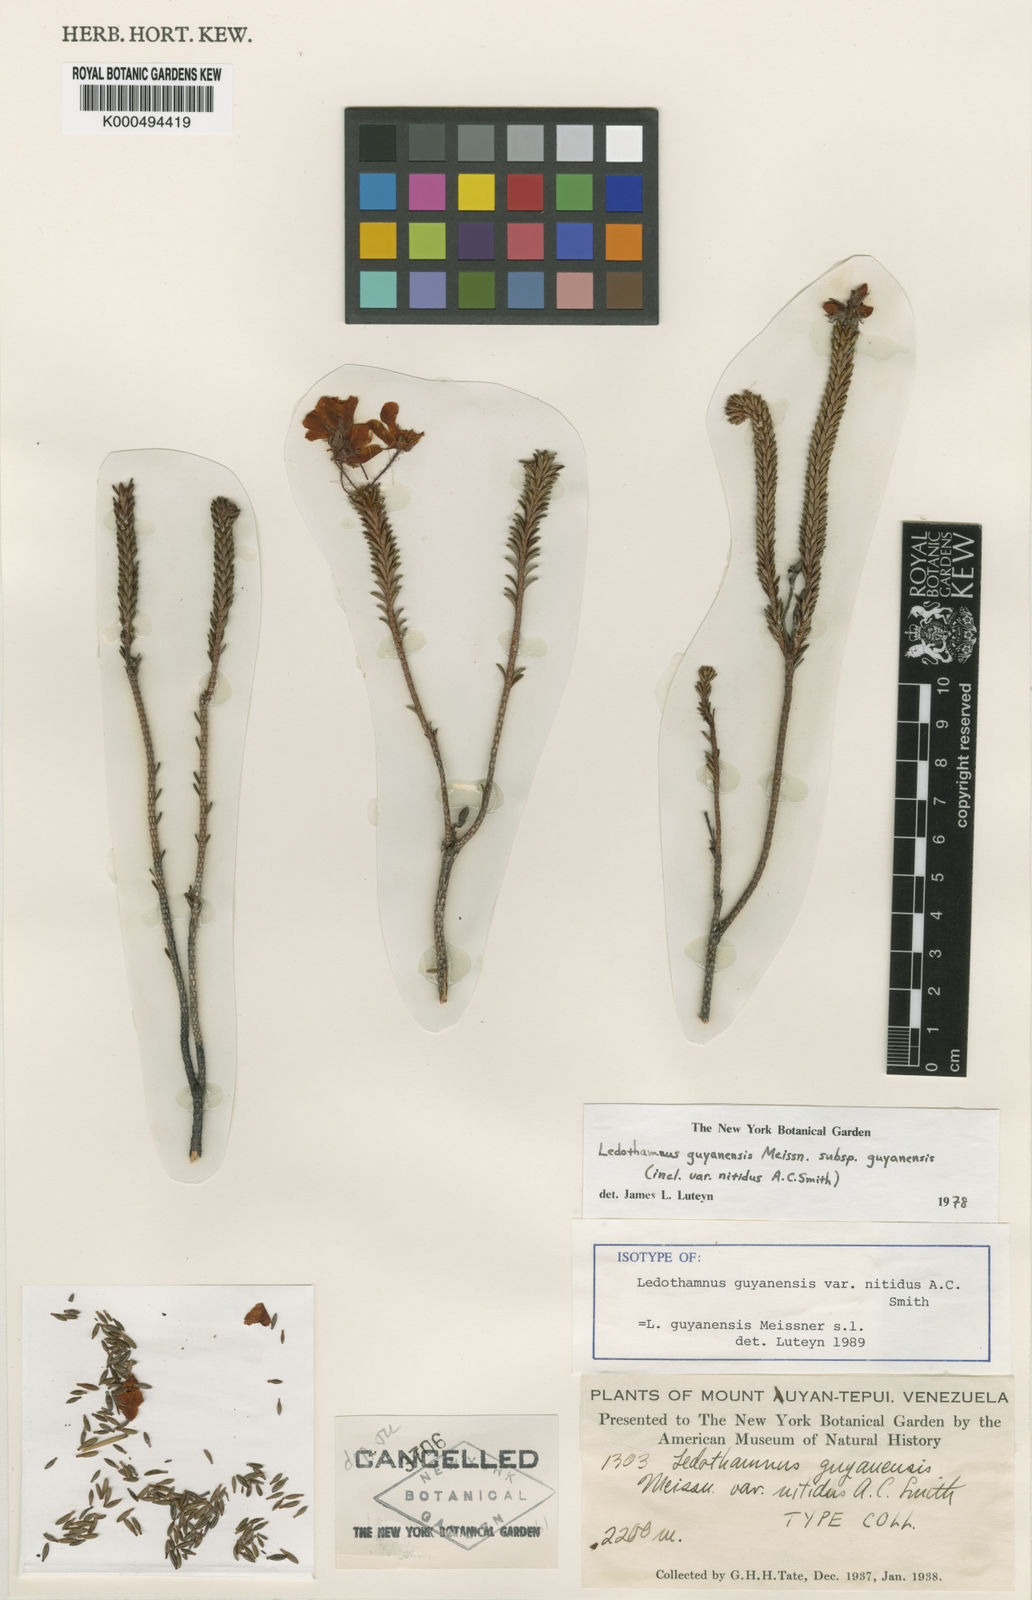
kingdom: Plantae
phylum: Tracheophyta
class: Magnoliopsida
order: Ericales
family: Ericaceae
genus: Ledothamnus
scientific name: Ledothamnus guyanensis
